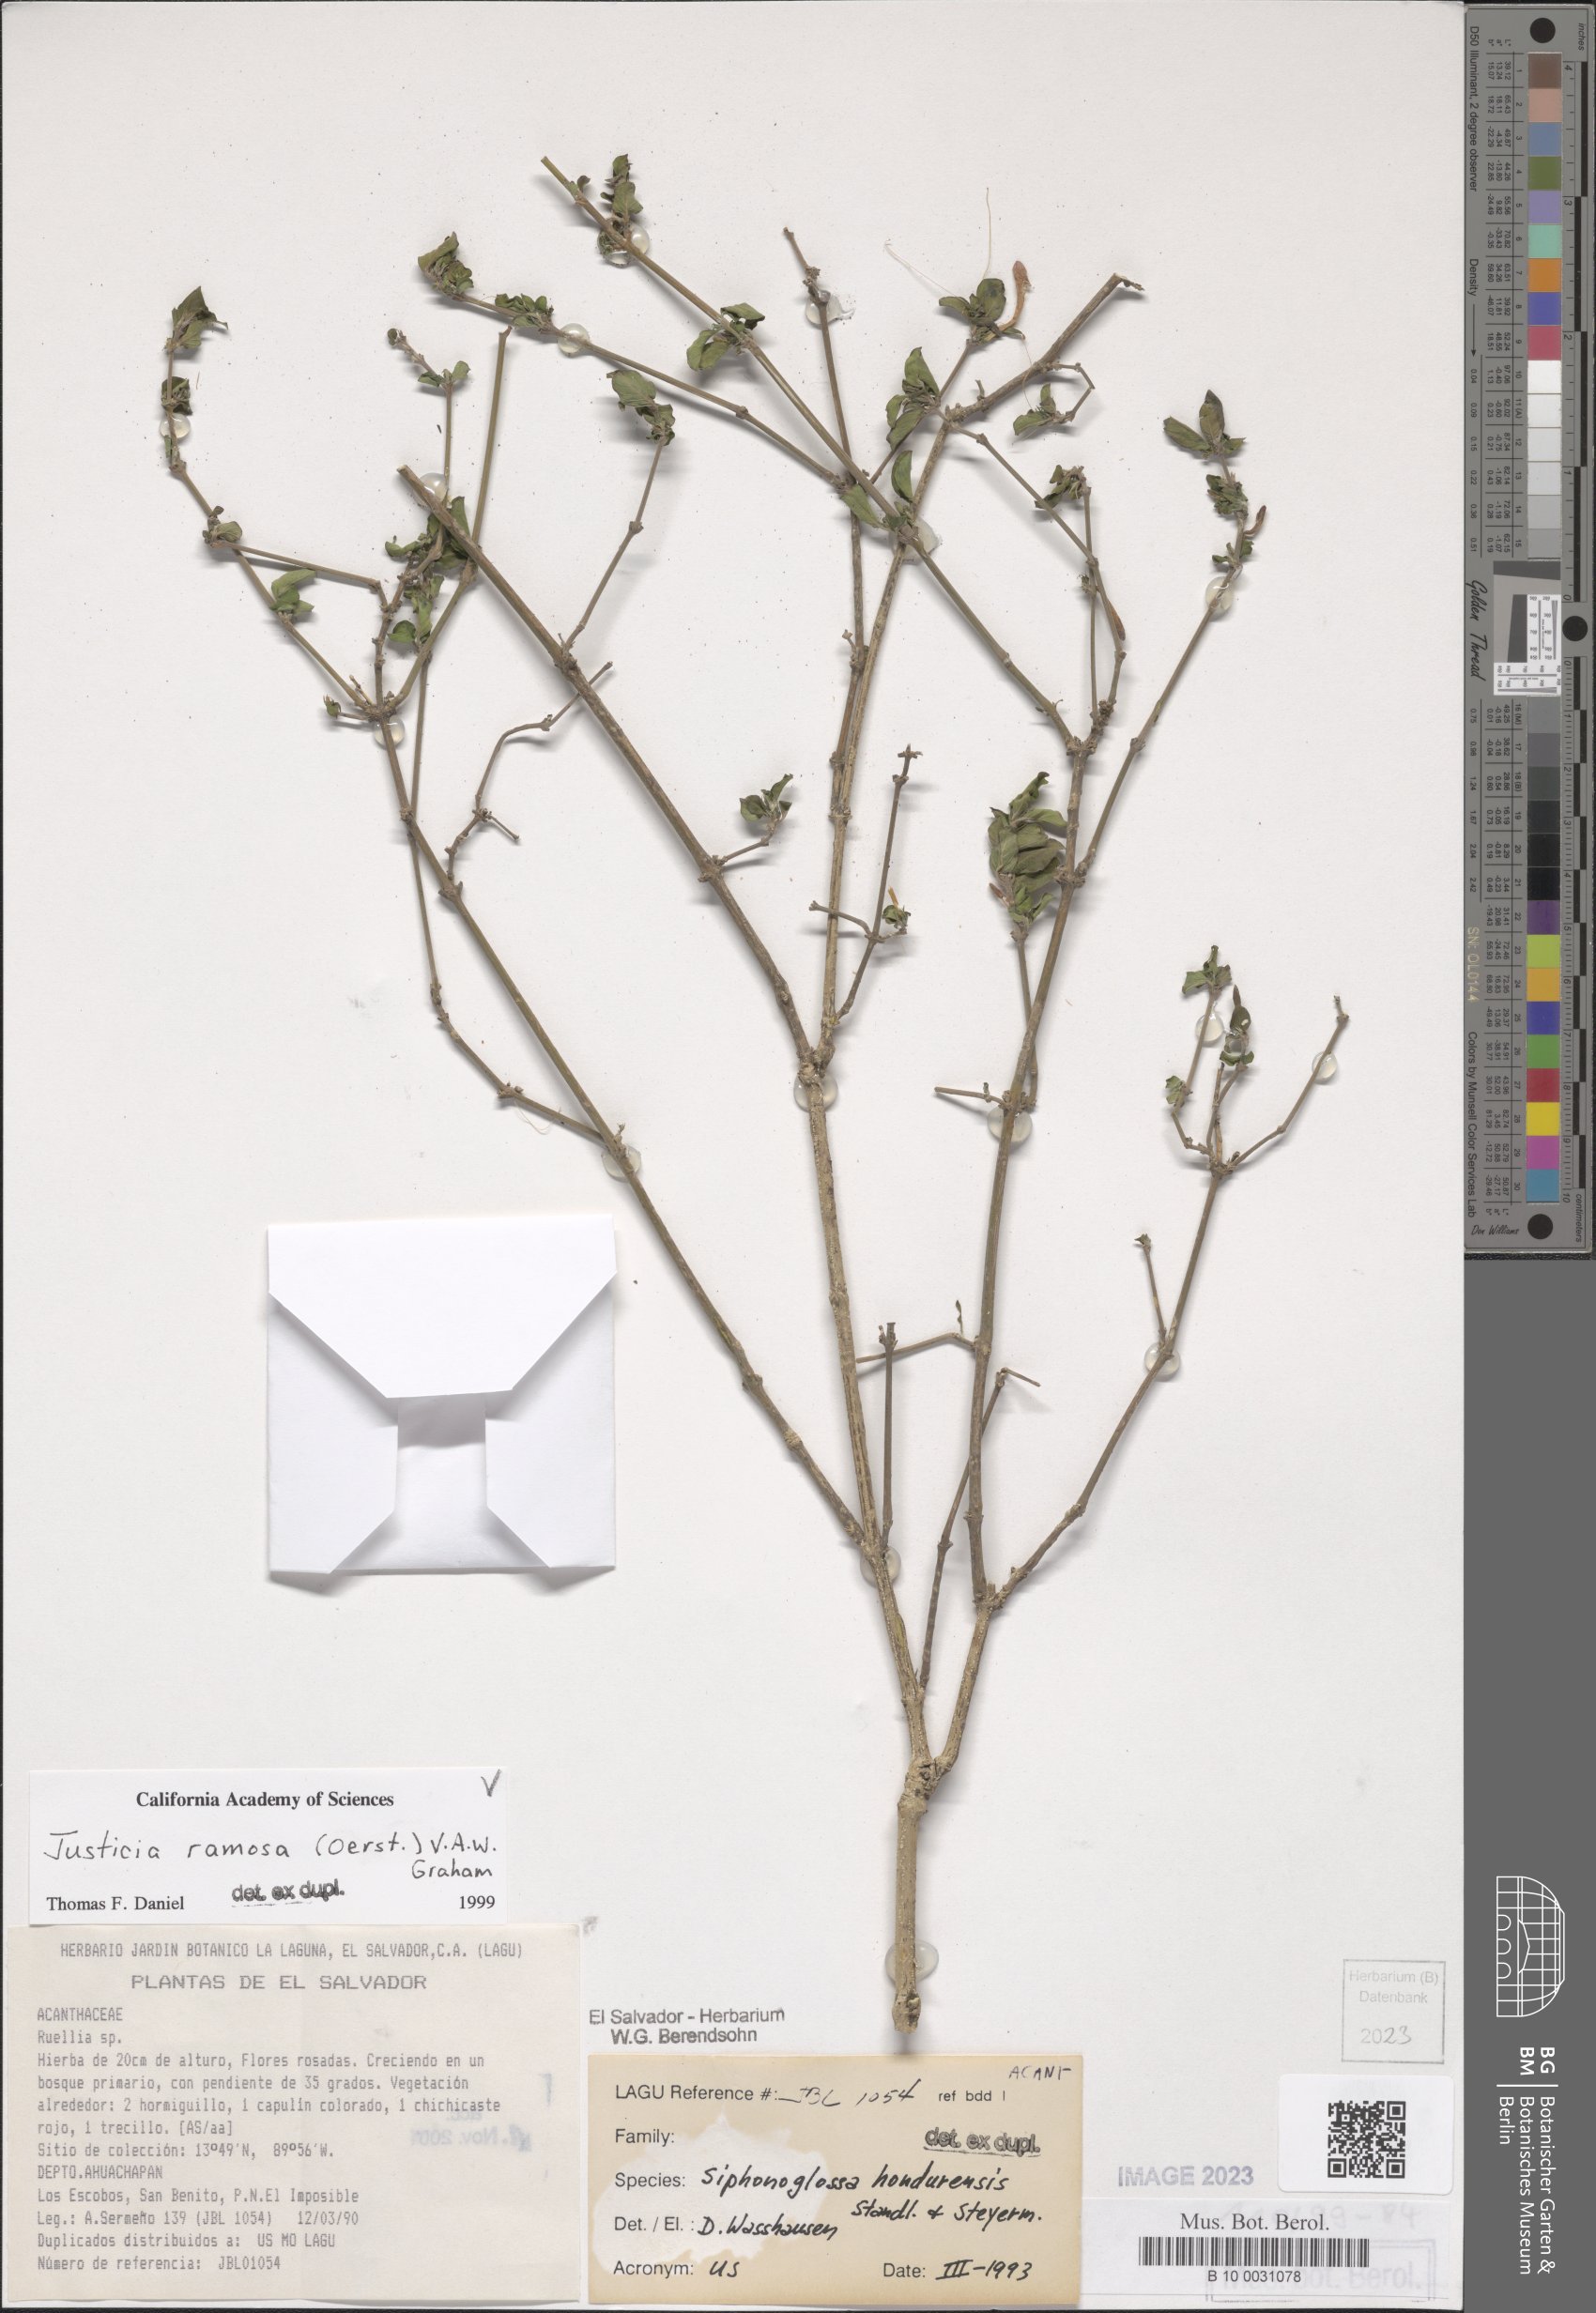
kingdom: Plantae
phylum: Tracheophyta
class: Magnoliopsida
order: Lamiales
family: Acanthaceae
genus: Justicia
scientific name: Justicia ramosa
